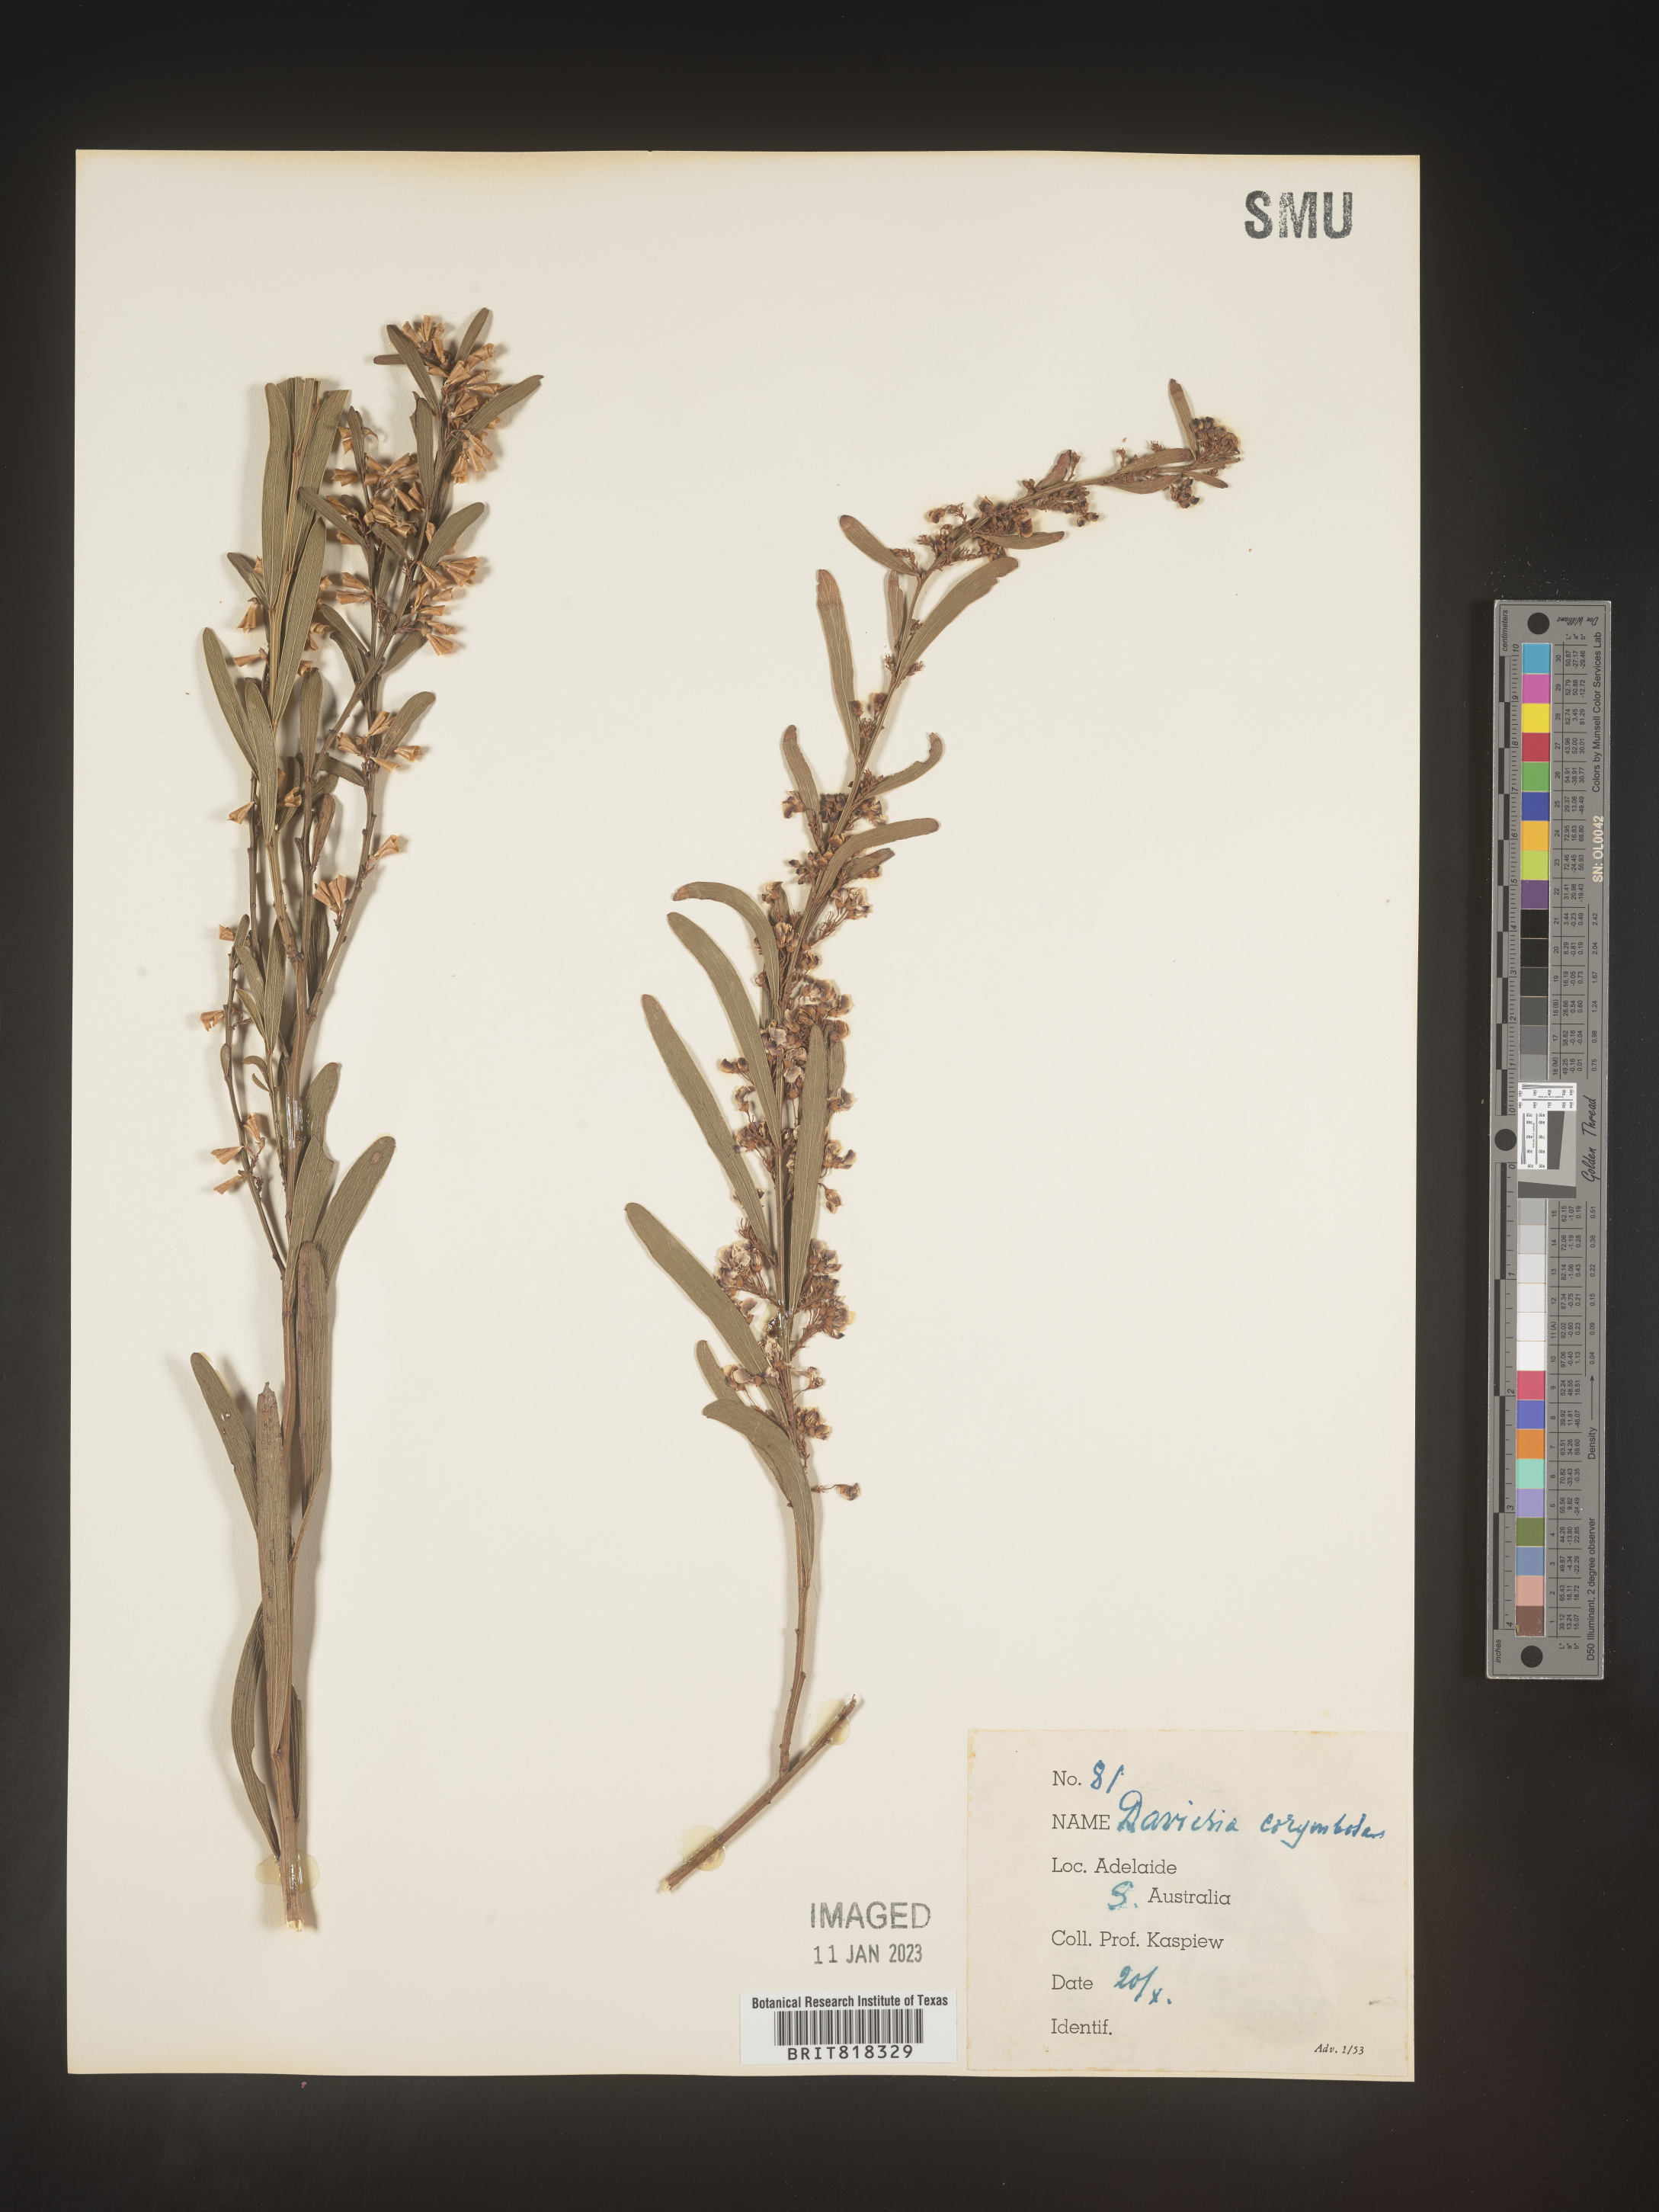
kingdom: Plantae
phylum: Tracheophyta
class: Magnoliopsida
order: Fabales
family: Fabaceae
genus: Daviesia
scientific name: Daviesia
